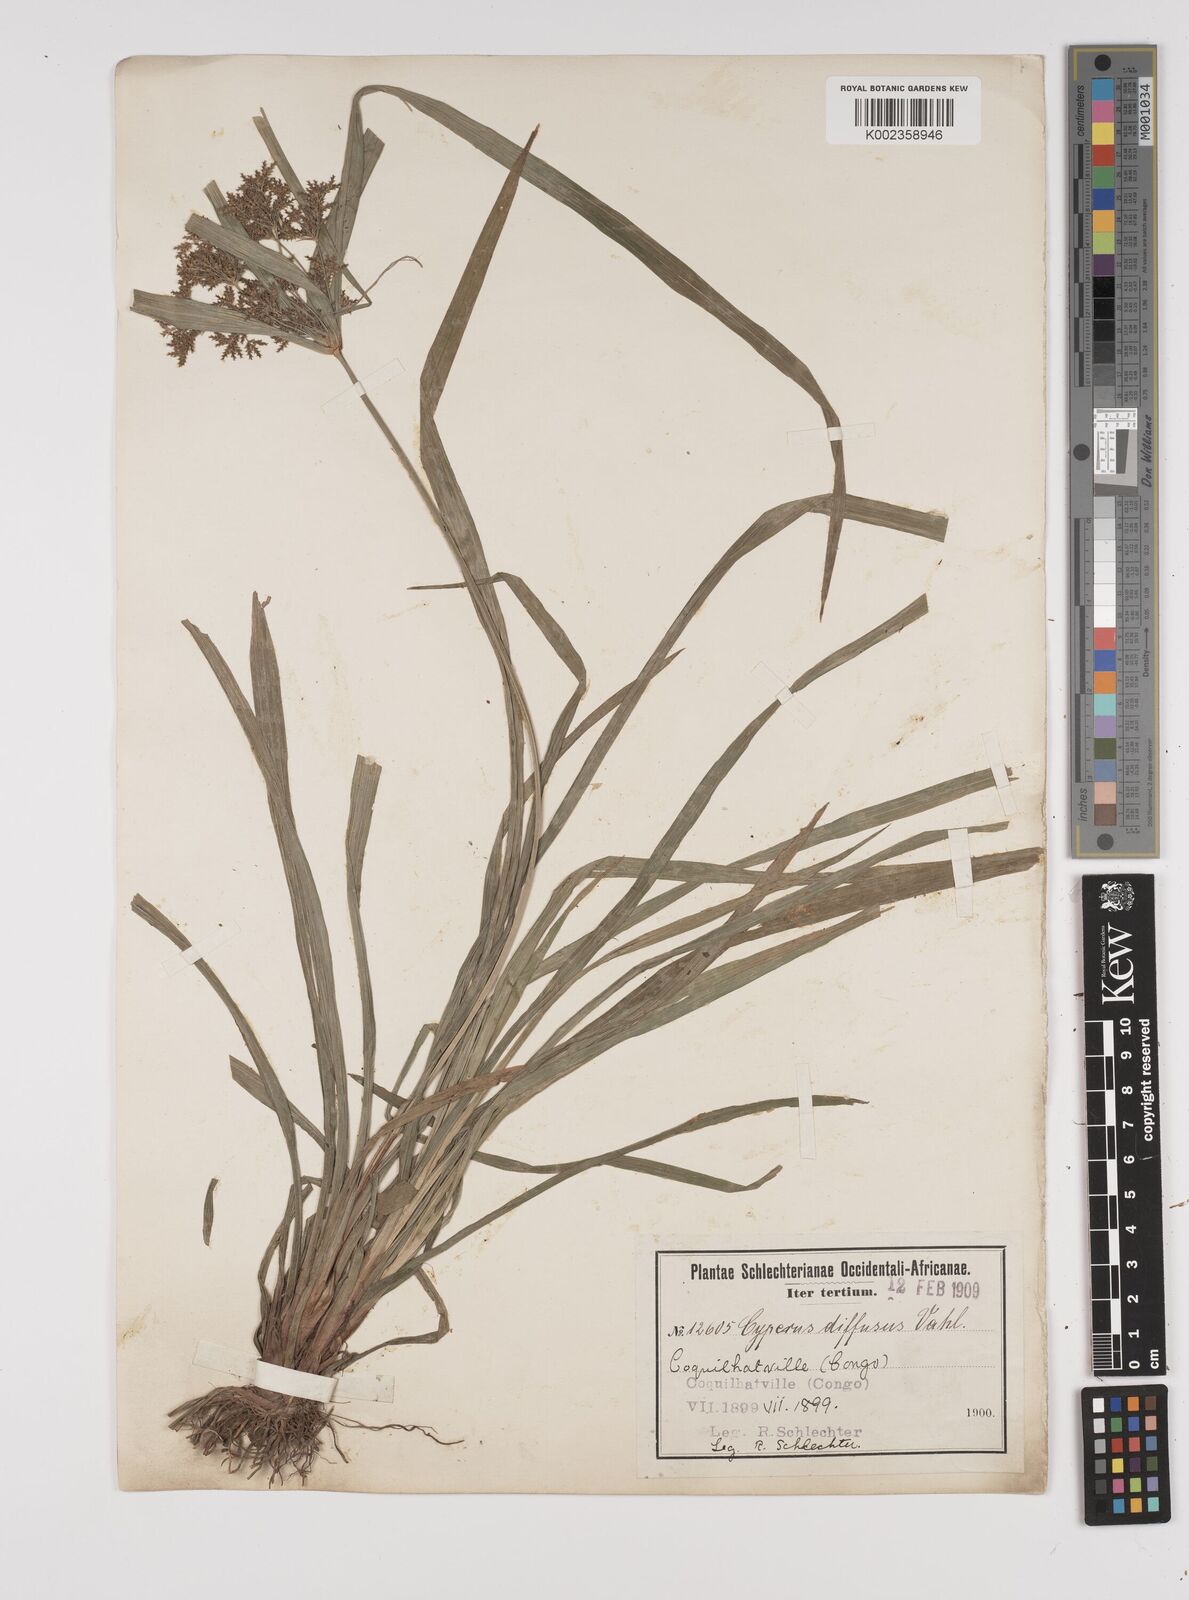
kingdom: Plantae
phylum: Tracheophyta
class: Liliopsida
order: Poales
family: Cyperaceae
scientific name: Cyperaceae
